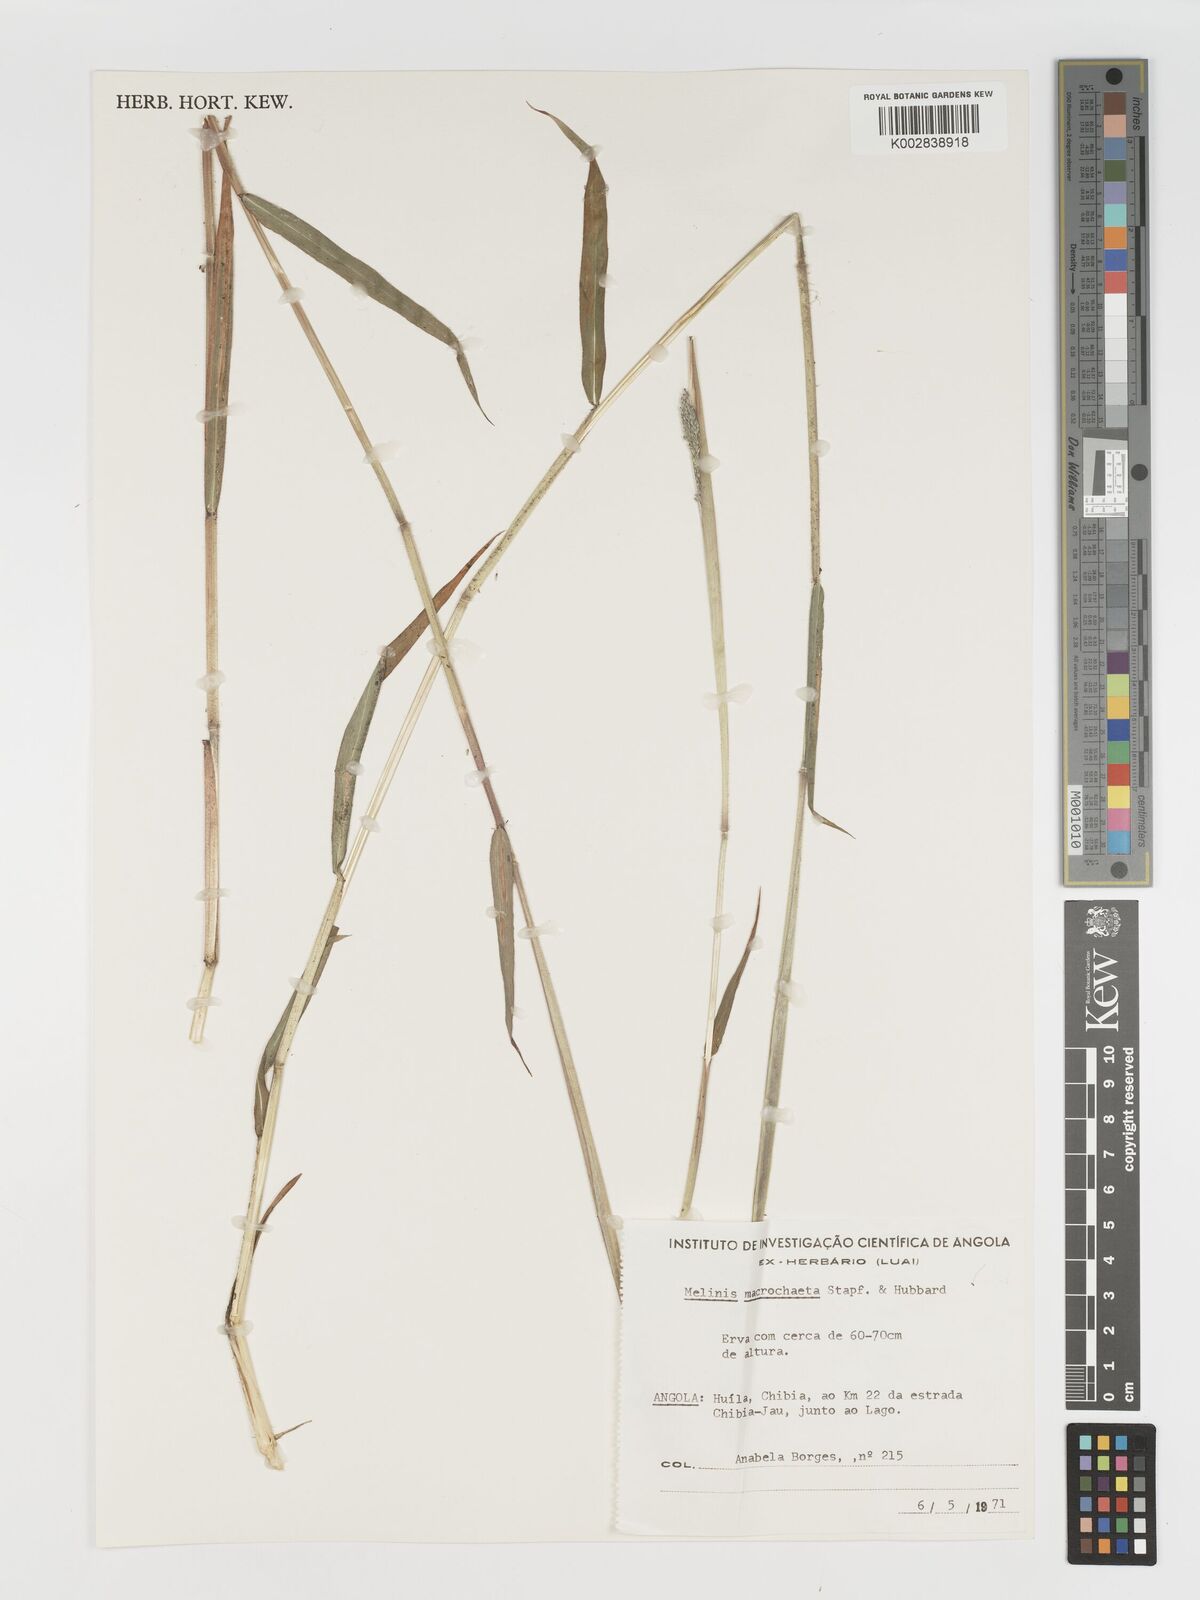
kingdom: Plantae
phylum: Tracheophyta
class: Liliopsida
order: Poales
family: Poaceae
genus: Melinis
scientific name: Melinis macrochaeta
